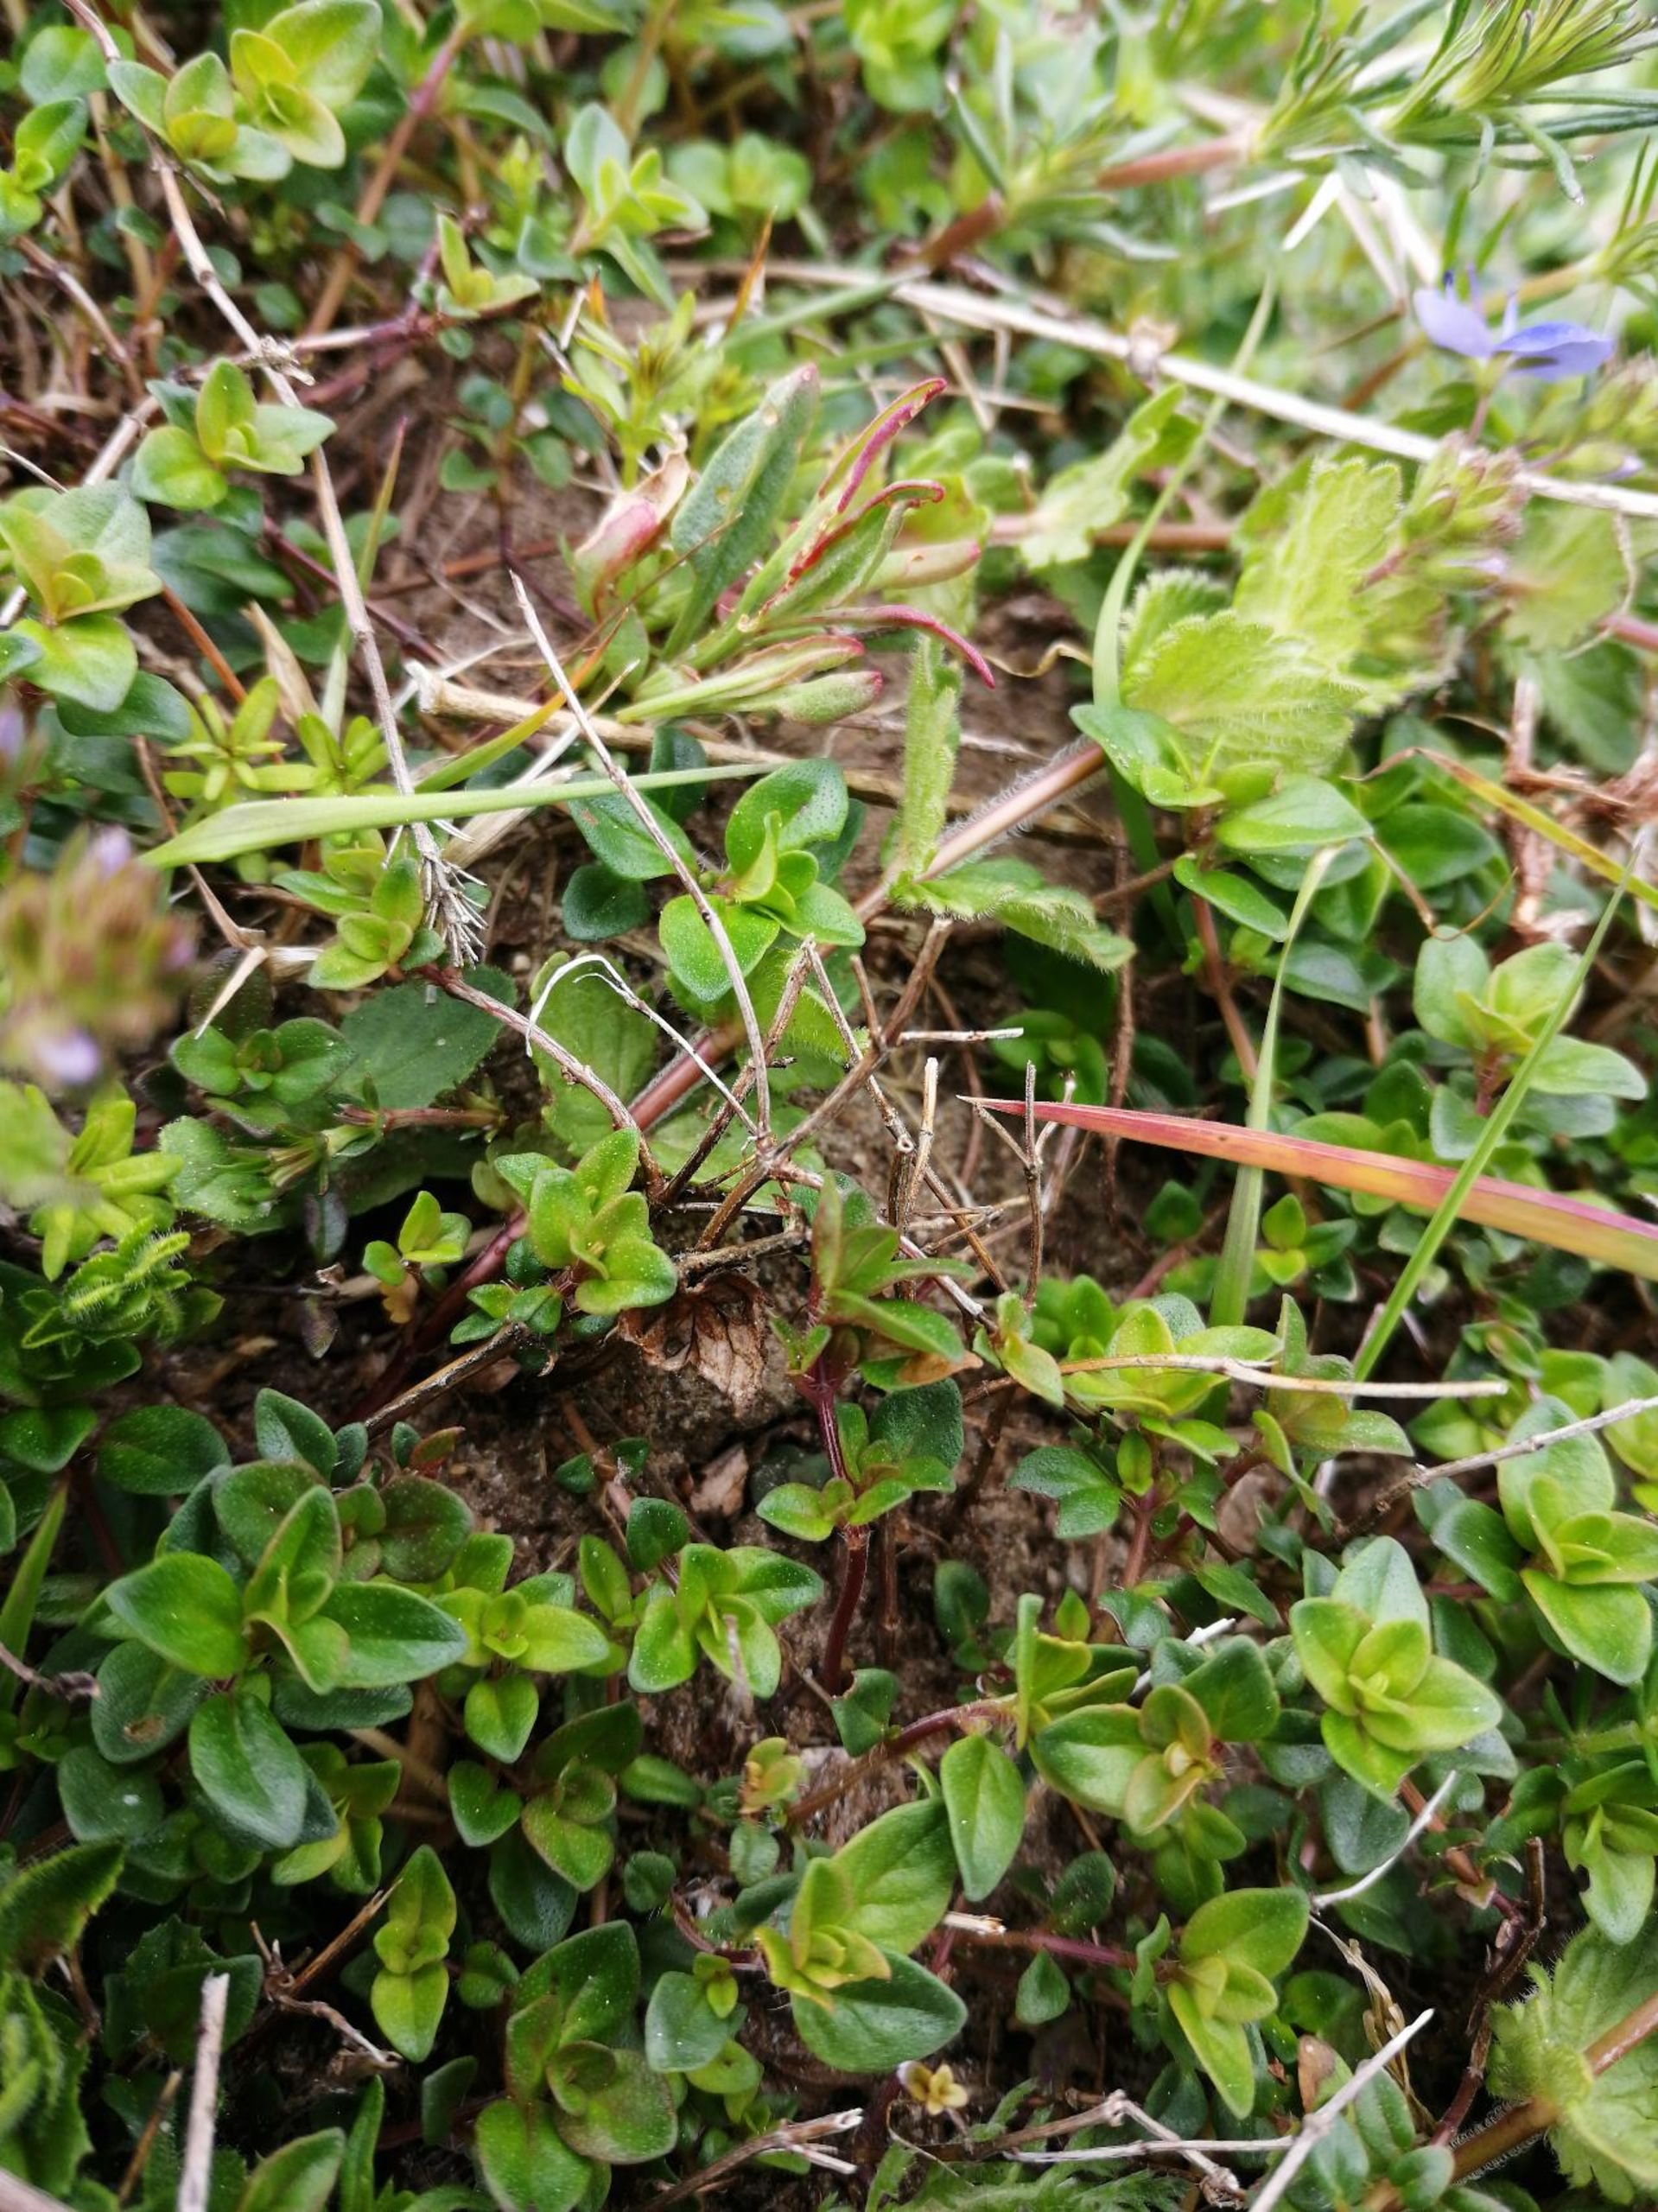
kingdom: Plantae
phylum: Tracheophyta
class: Magnoliopsida
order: Lamiales
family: Lamiaceae
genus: Thymus
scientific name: Thymus pulegioides
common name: Bredbladet timian
